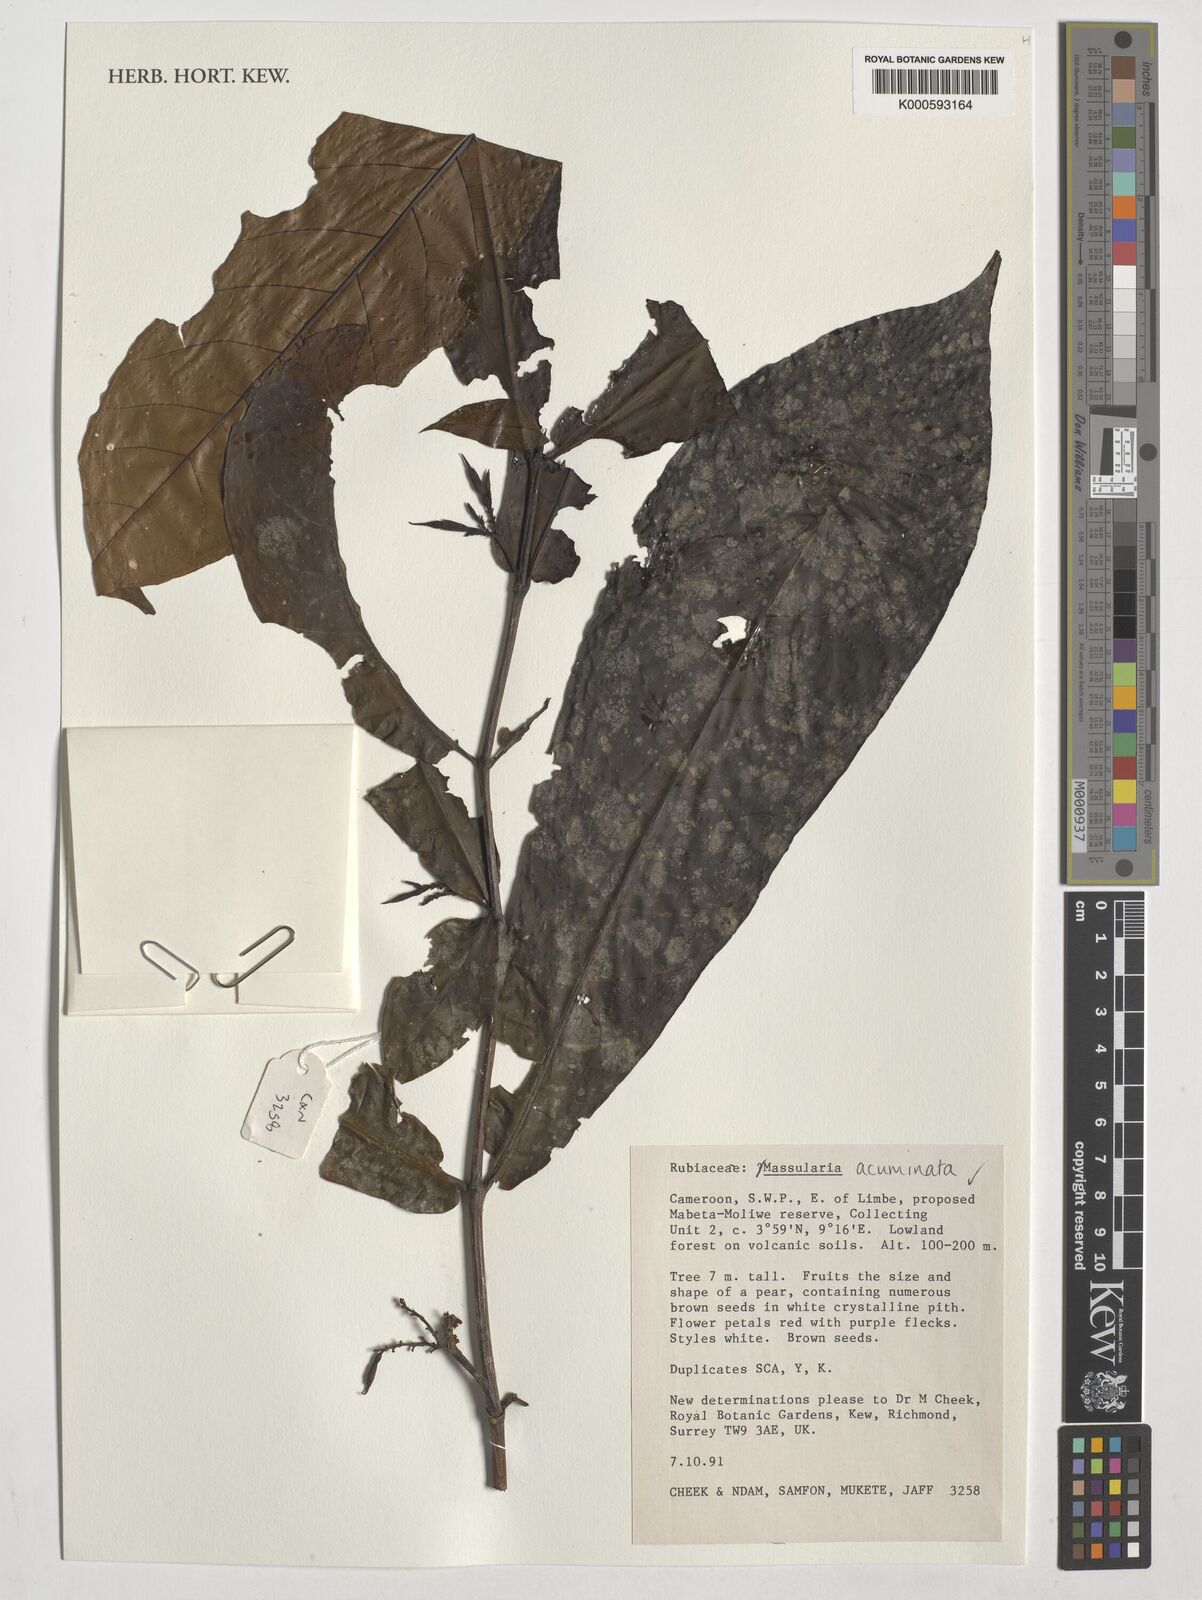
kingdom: Plantae
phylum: Tracheophyta
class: Magnoliopsida
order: Gentianales
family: Rubiaceae
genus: Massularia
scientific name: Massularia acuminata
